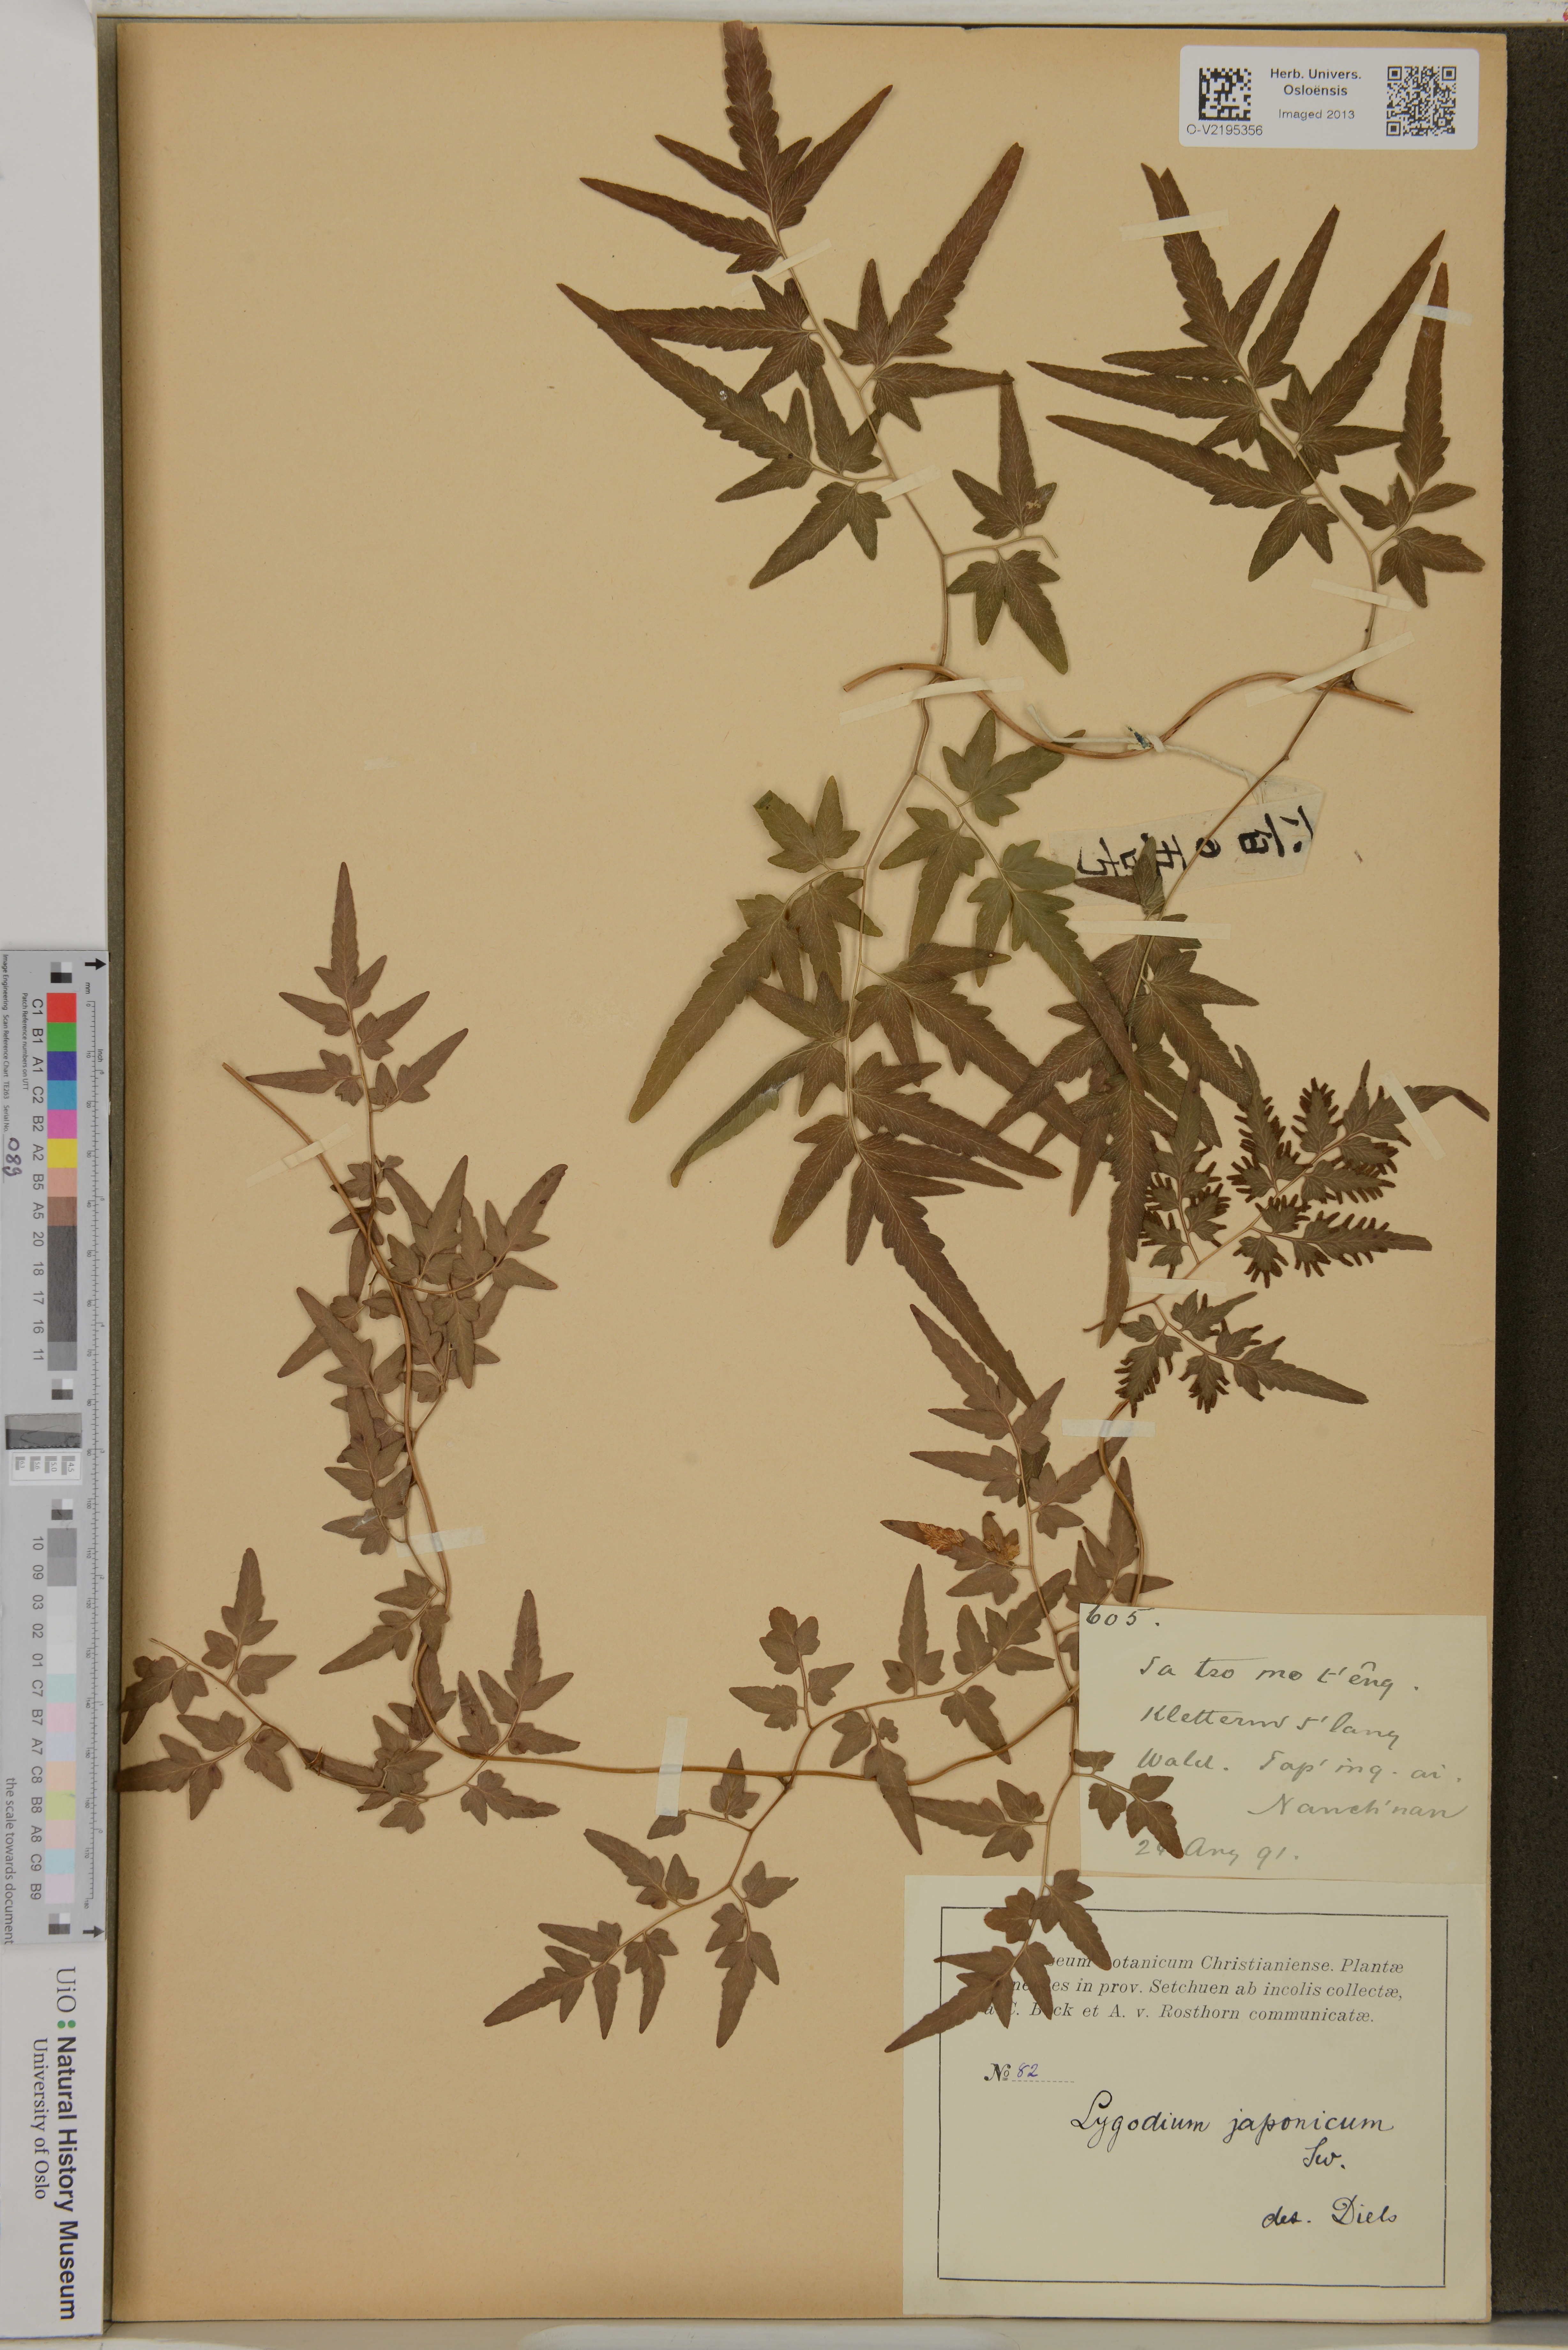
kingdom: Plantae
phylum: Tracheophyta
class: Polypodiopsida
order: Schizaeales
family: Lygodiaceae
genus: Lygodium
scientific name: Lygodium japonicum
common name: Japanese climbing fern
